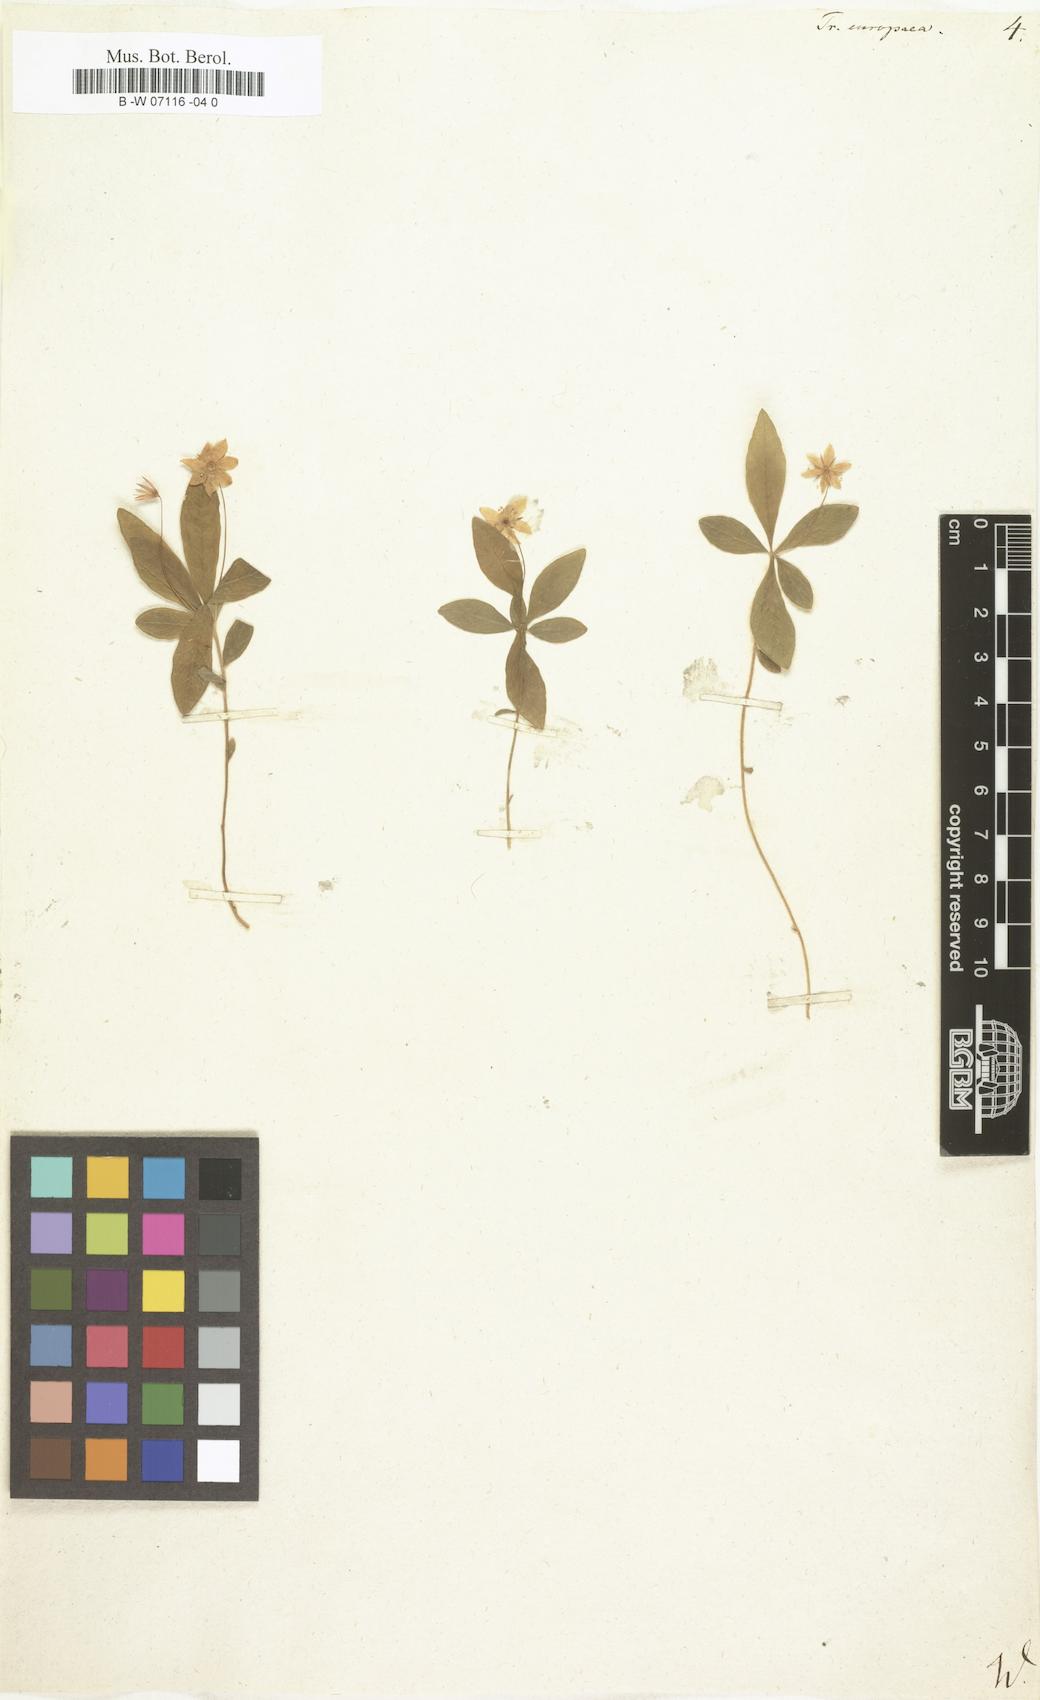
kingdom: Plantae
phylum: Tracheophyta
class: Magnoliopsida
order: Ericales
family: Primulaceae
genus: Lysimachia
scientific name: Lysimachia
